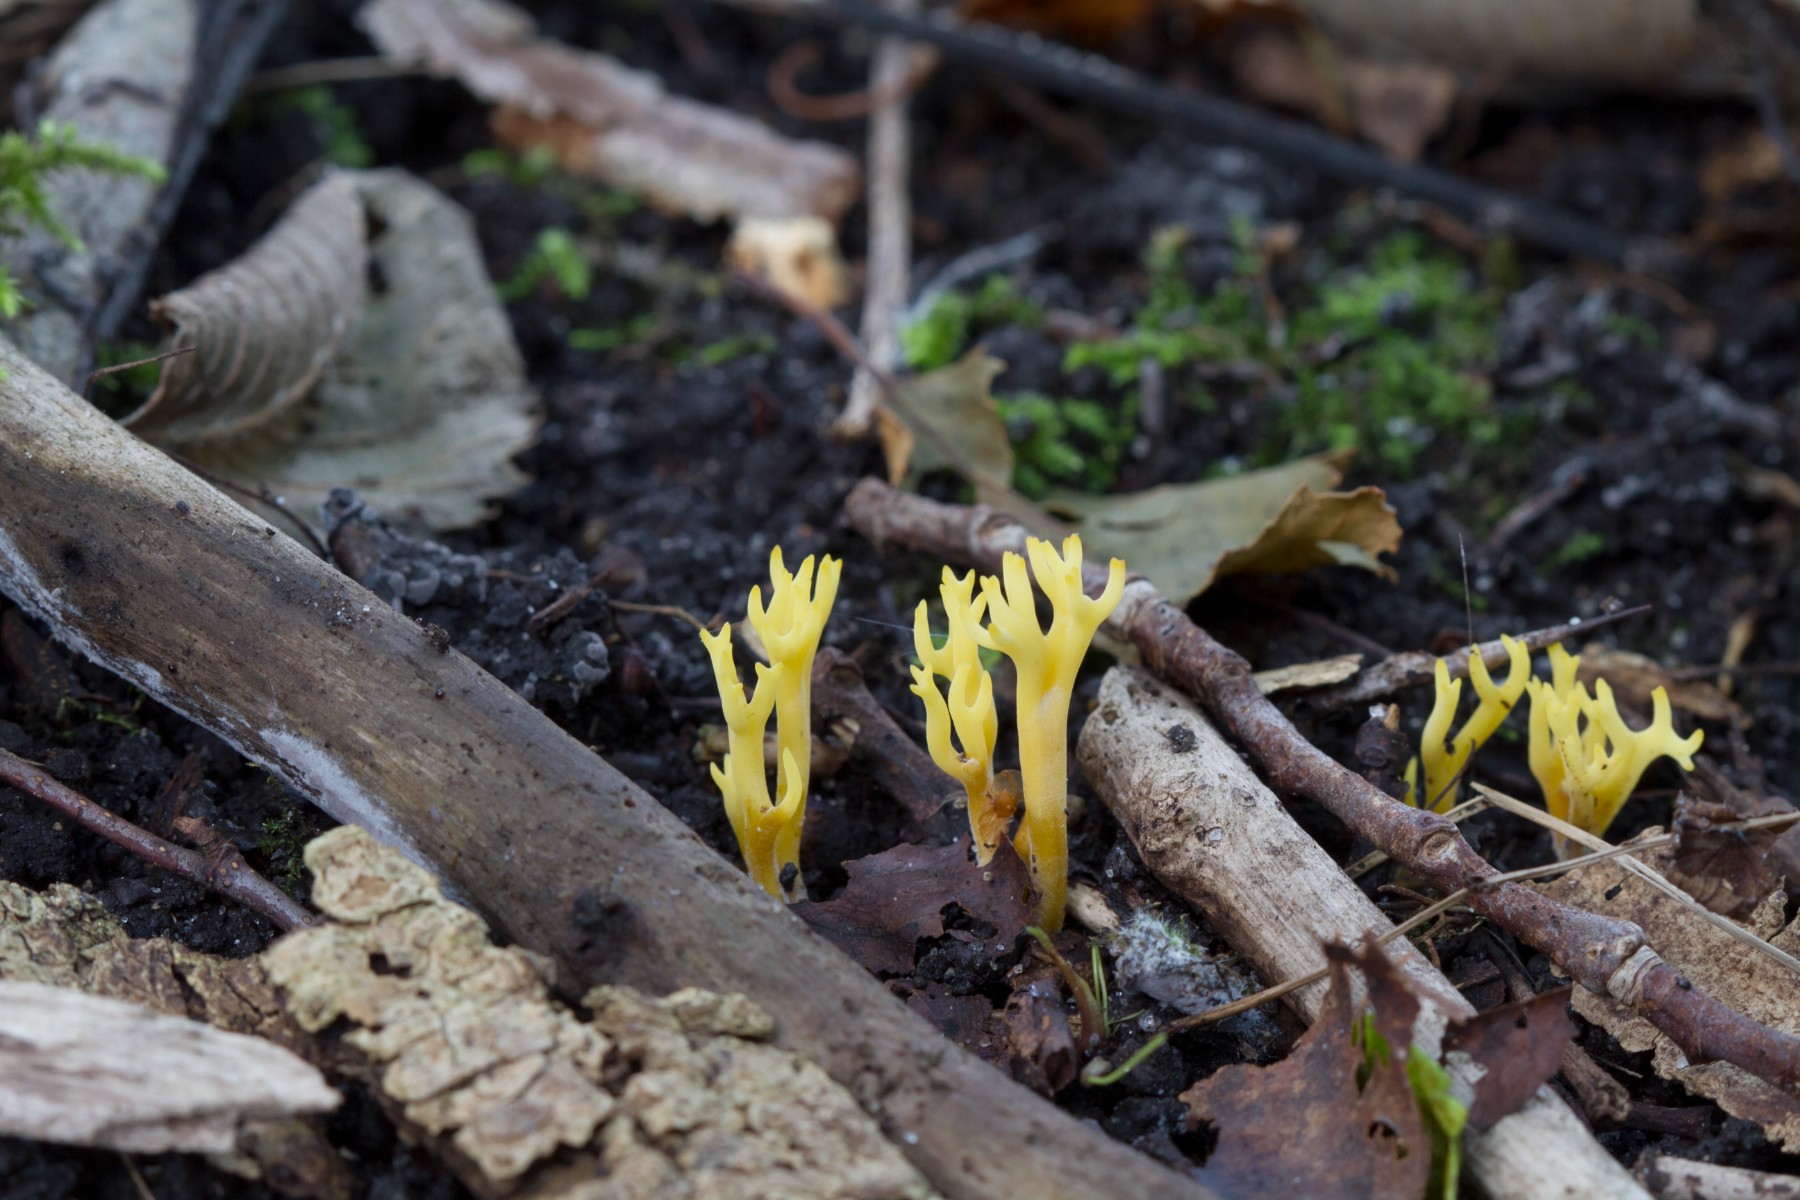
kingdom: Fungi
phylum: Basidiomycota
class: Agaricomycetes
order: Agaricales
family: Clavariaceae
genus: Clavulinopsis
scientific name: Clavulinopsis corniculata
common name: eng-køllesvamp
